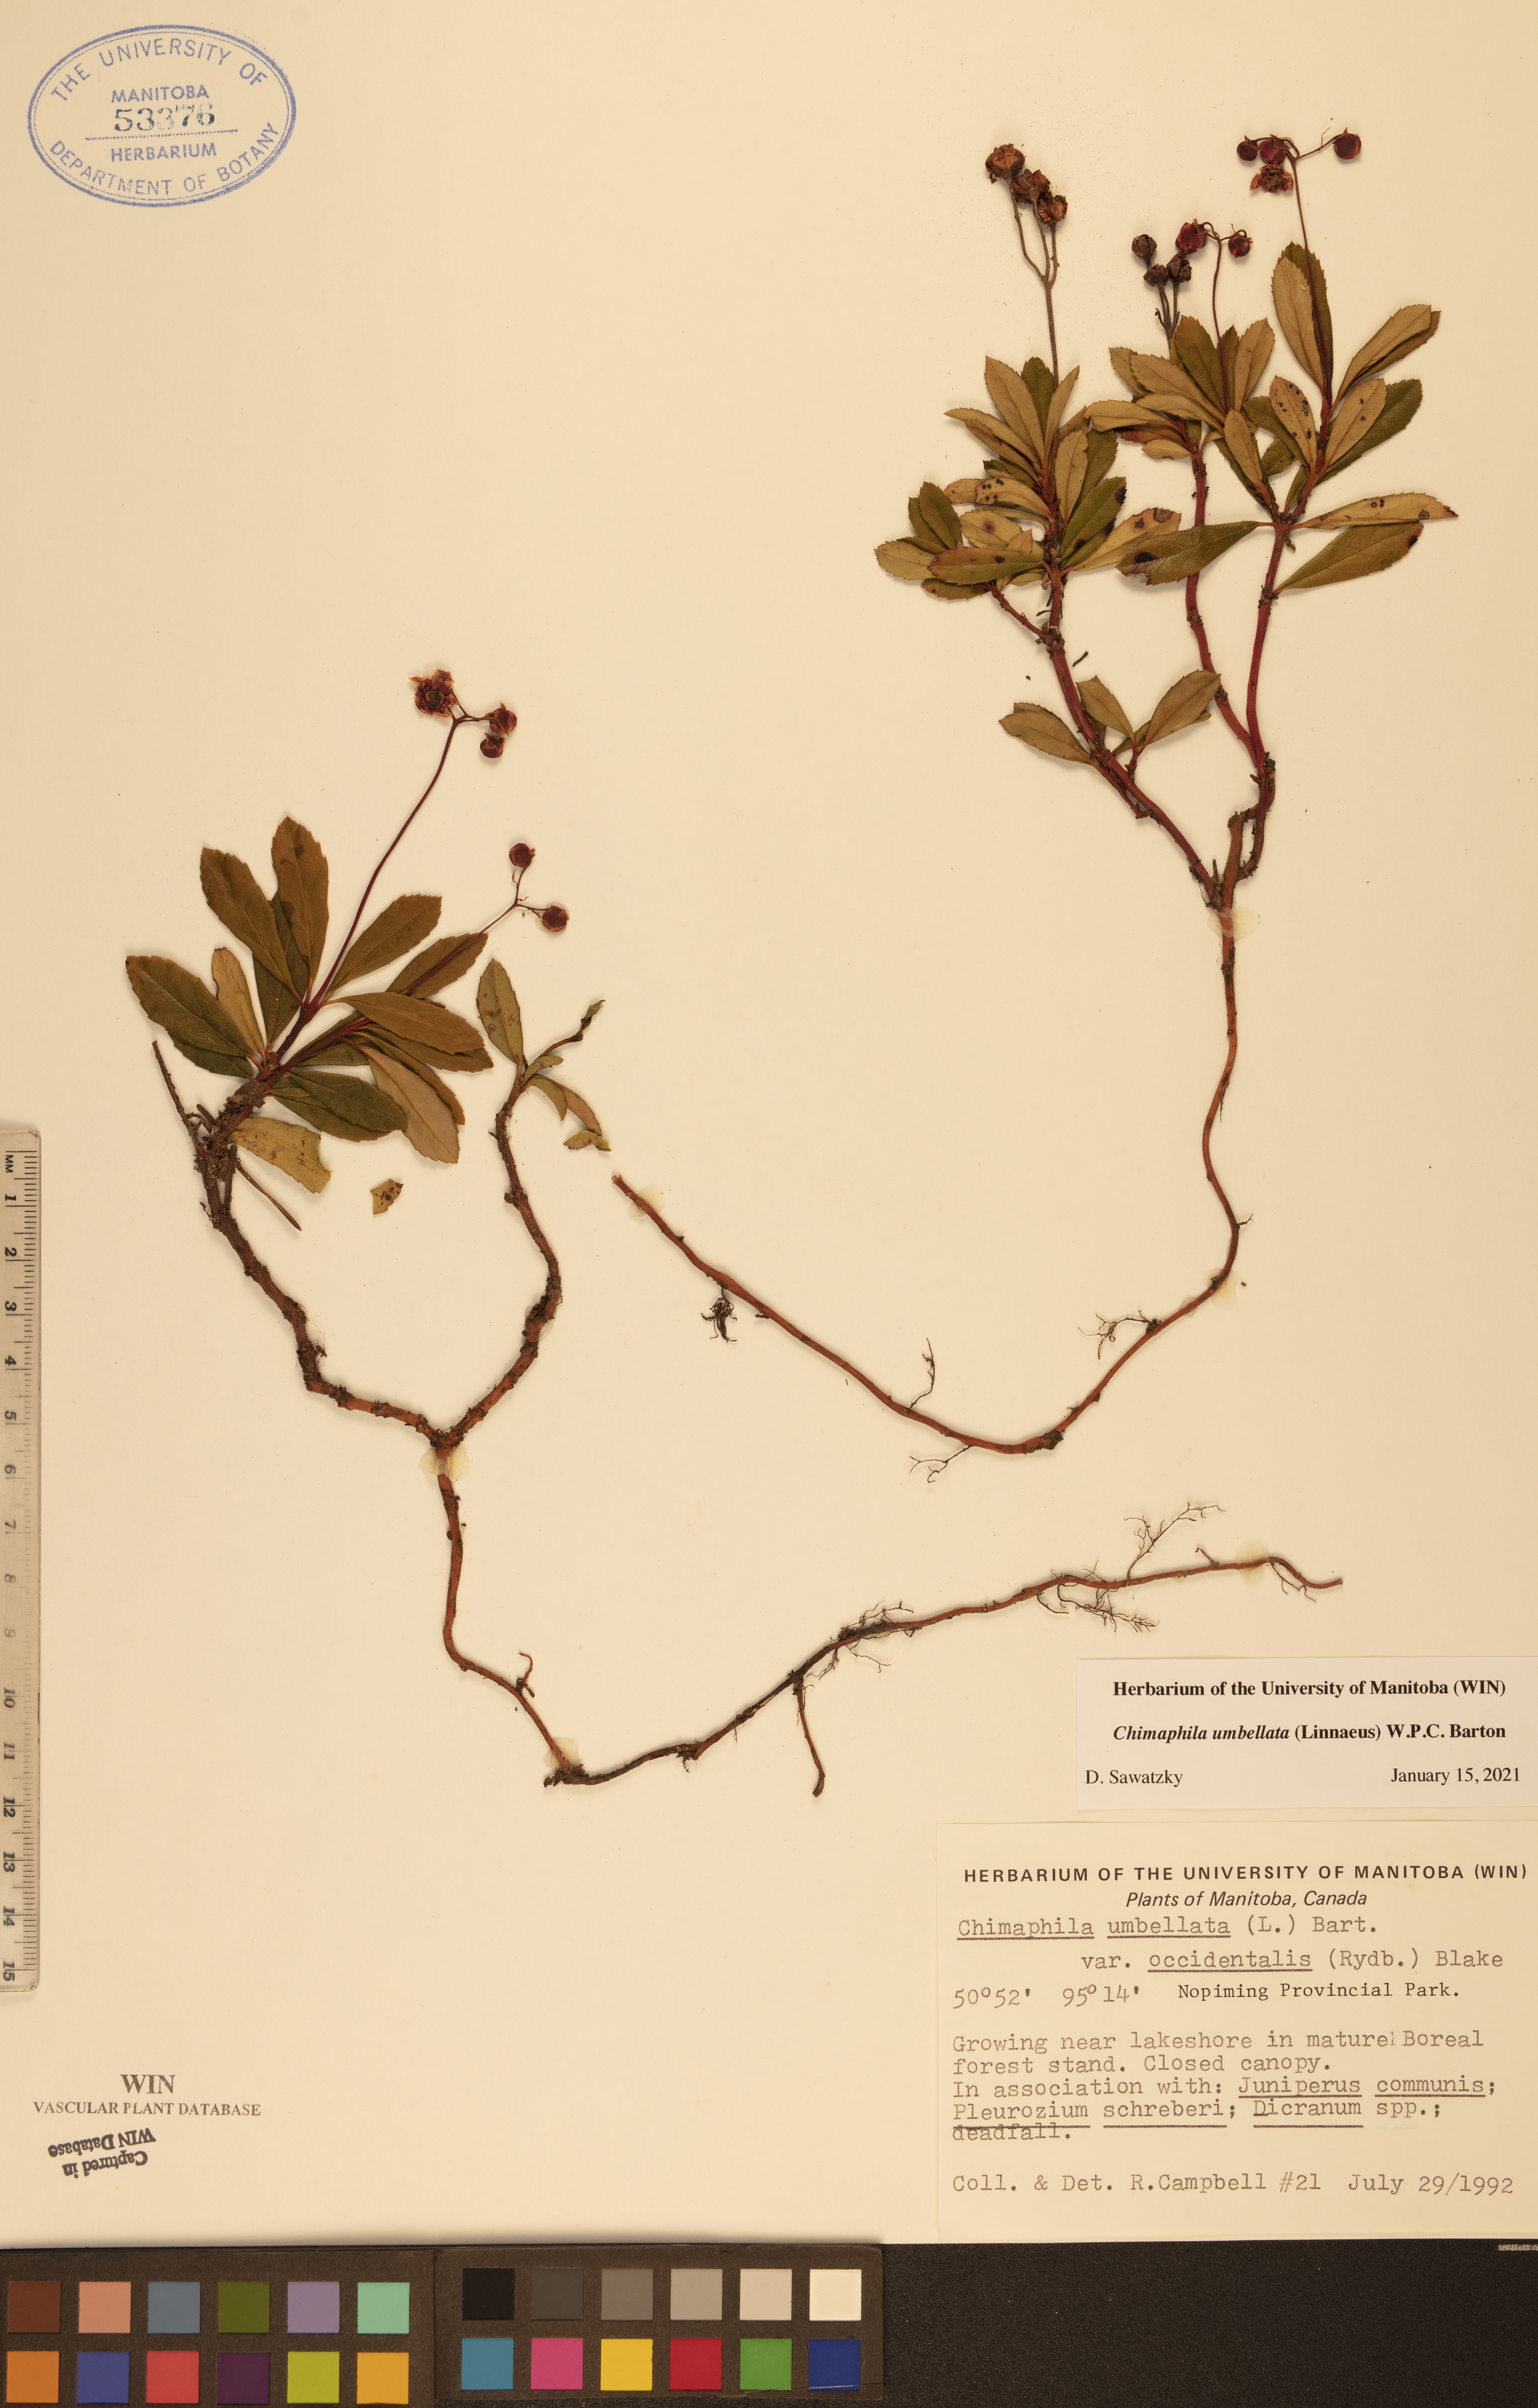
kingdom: Plantae
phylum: Tracheophyta
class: Magnoliopsida
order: Ericales
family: Ericaceae
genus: Chimaphila
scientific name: Chimaphila umbellata
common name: Pipsissewa
